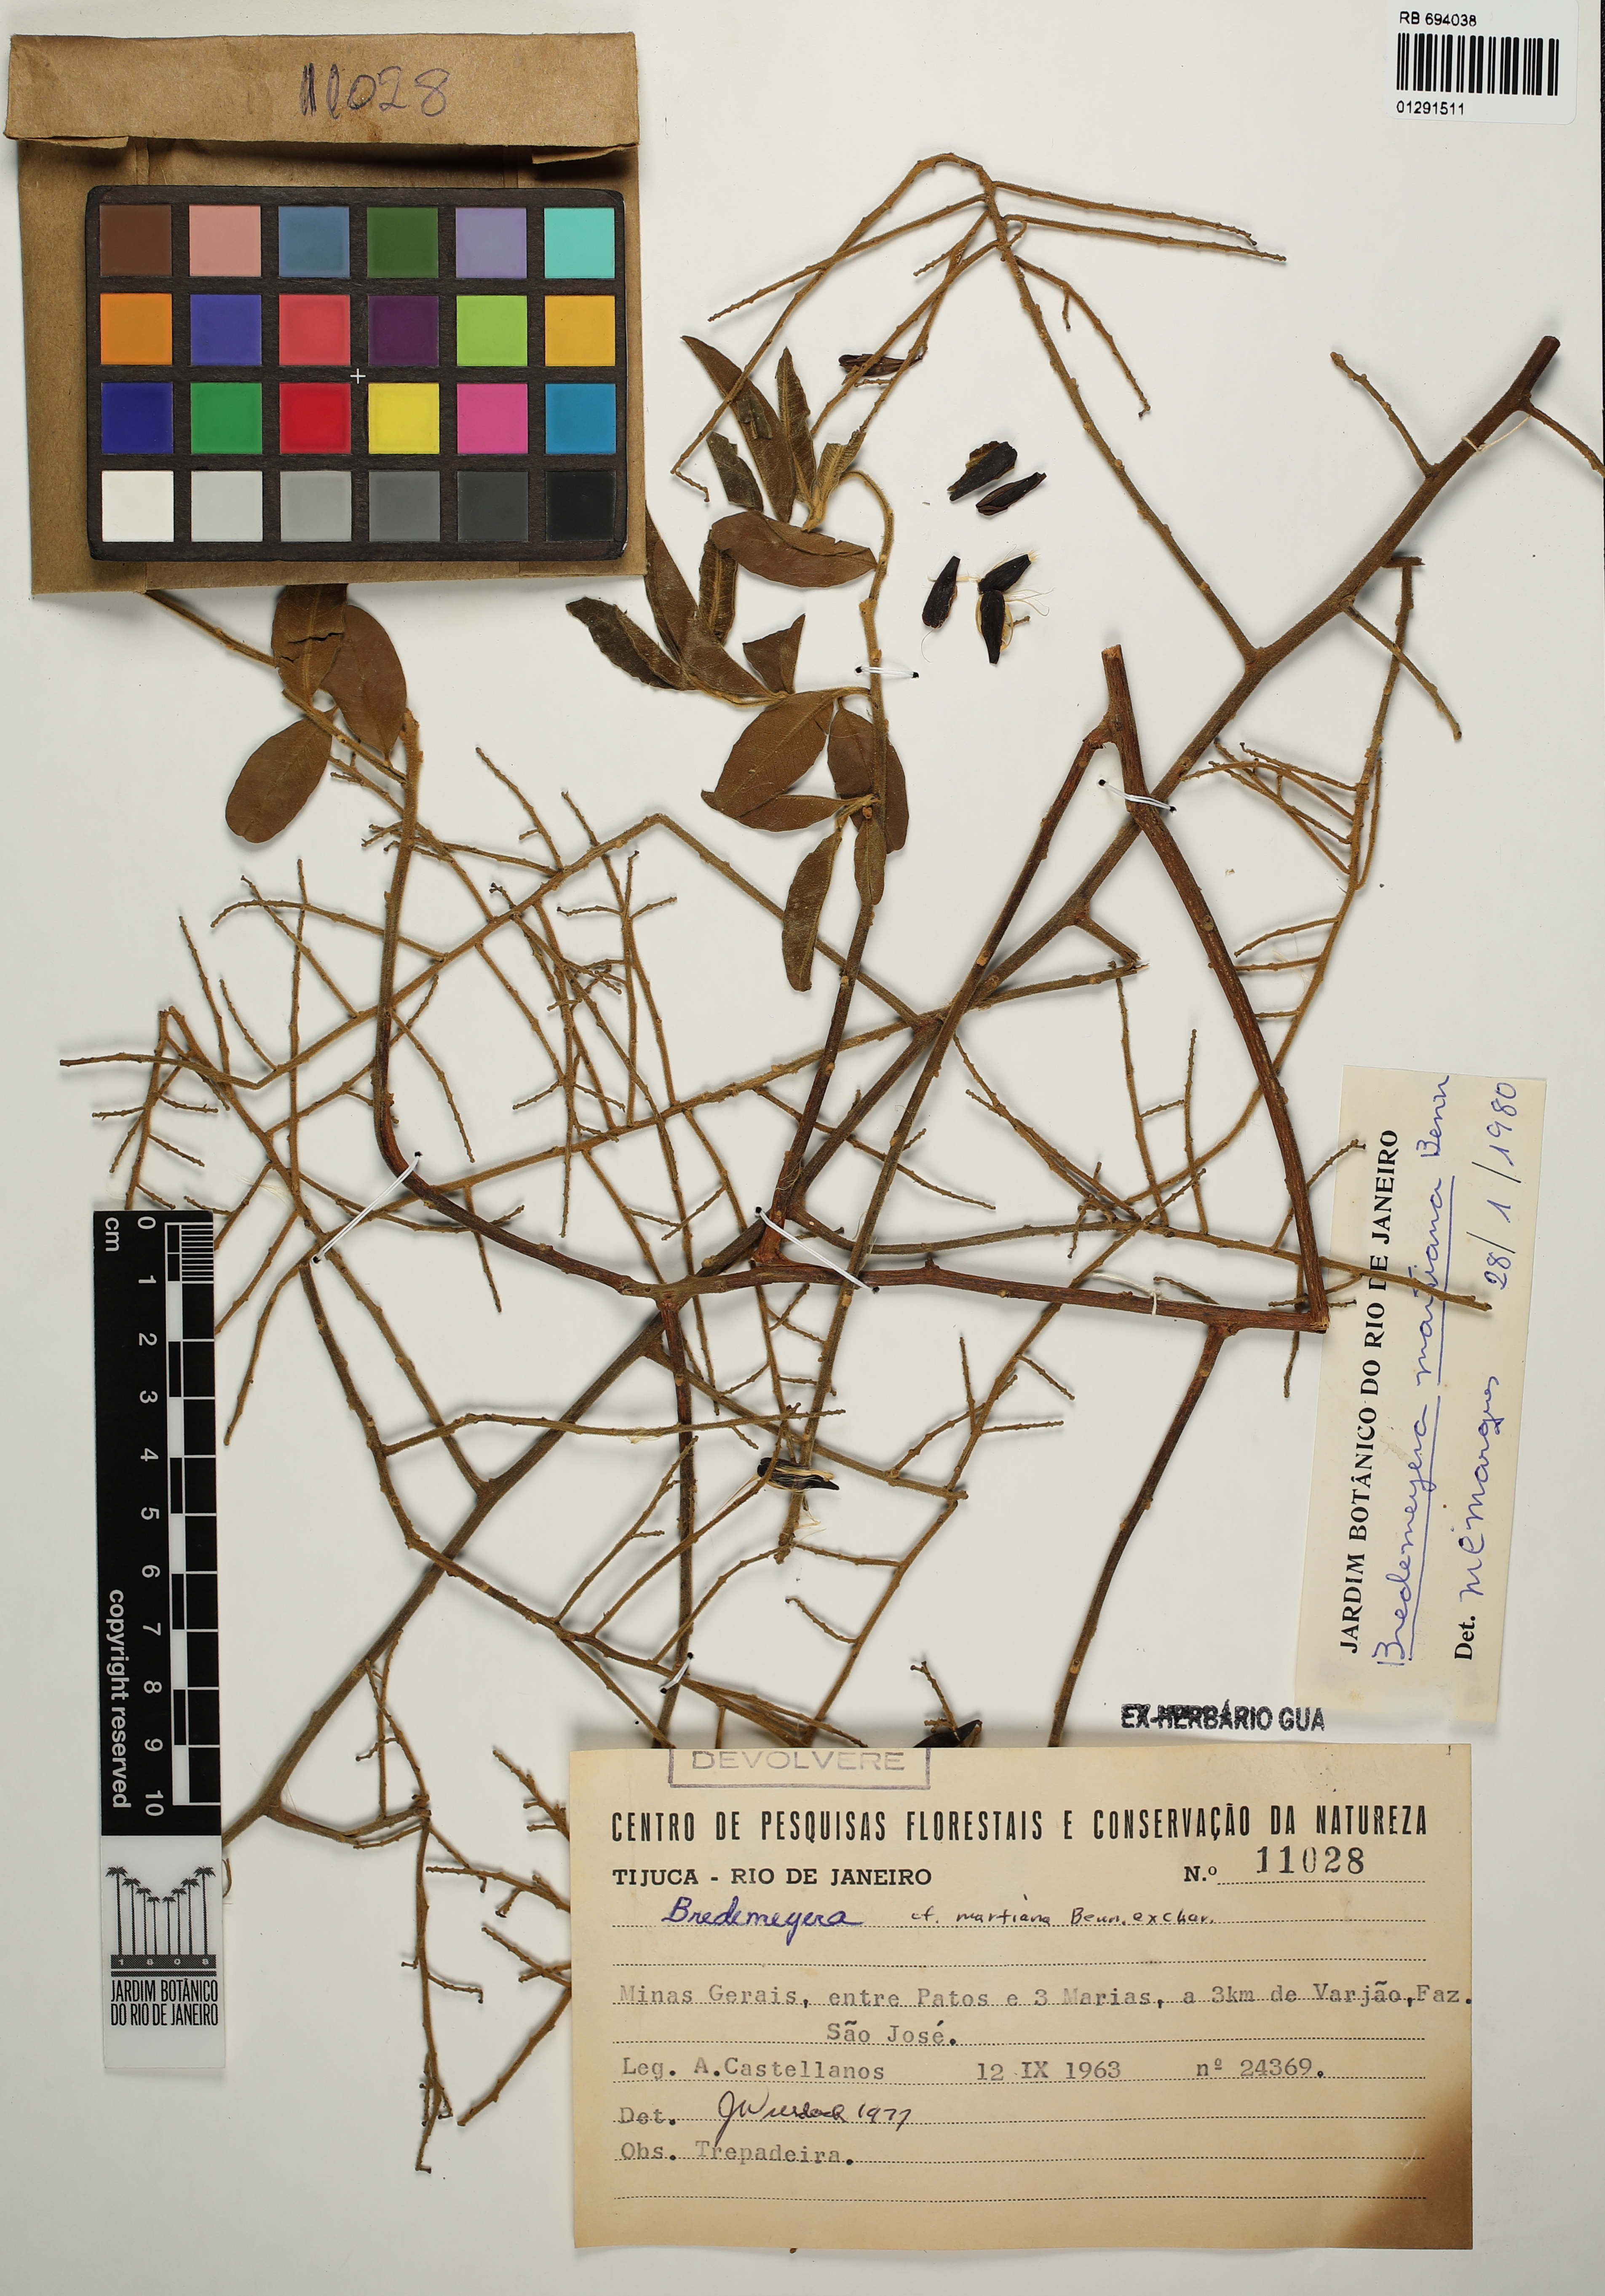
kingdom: Plantae
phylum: Tracheophyta
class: Magnoliopsida
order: Fabales
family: Polygalaceae
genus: Bredemeyera
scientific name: Bredemeyera martiana
